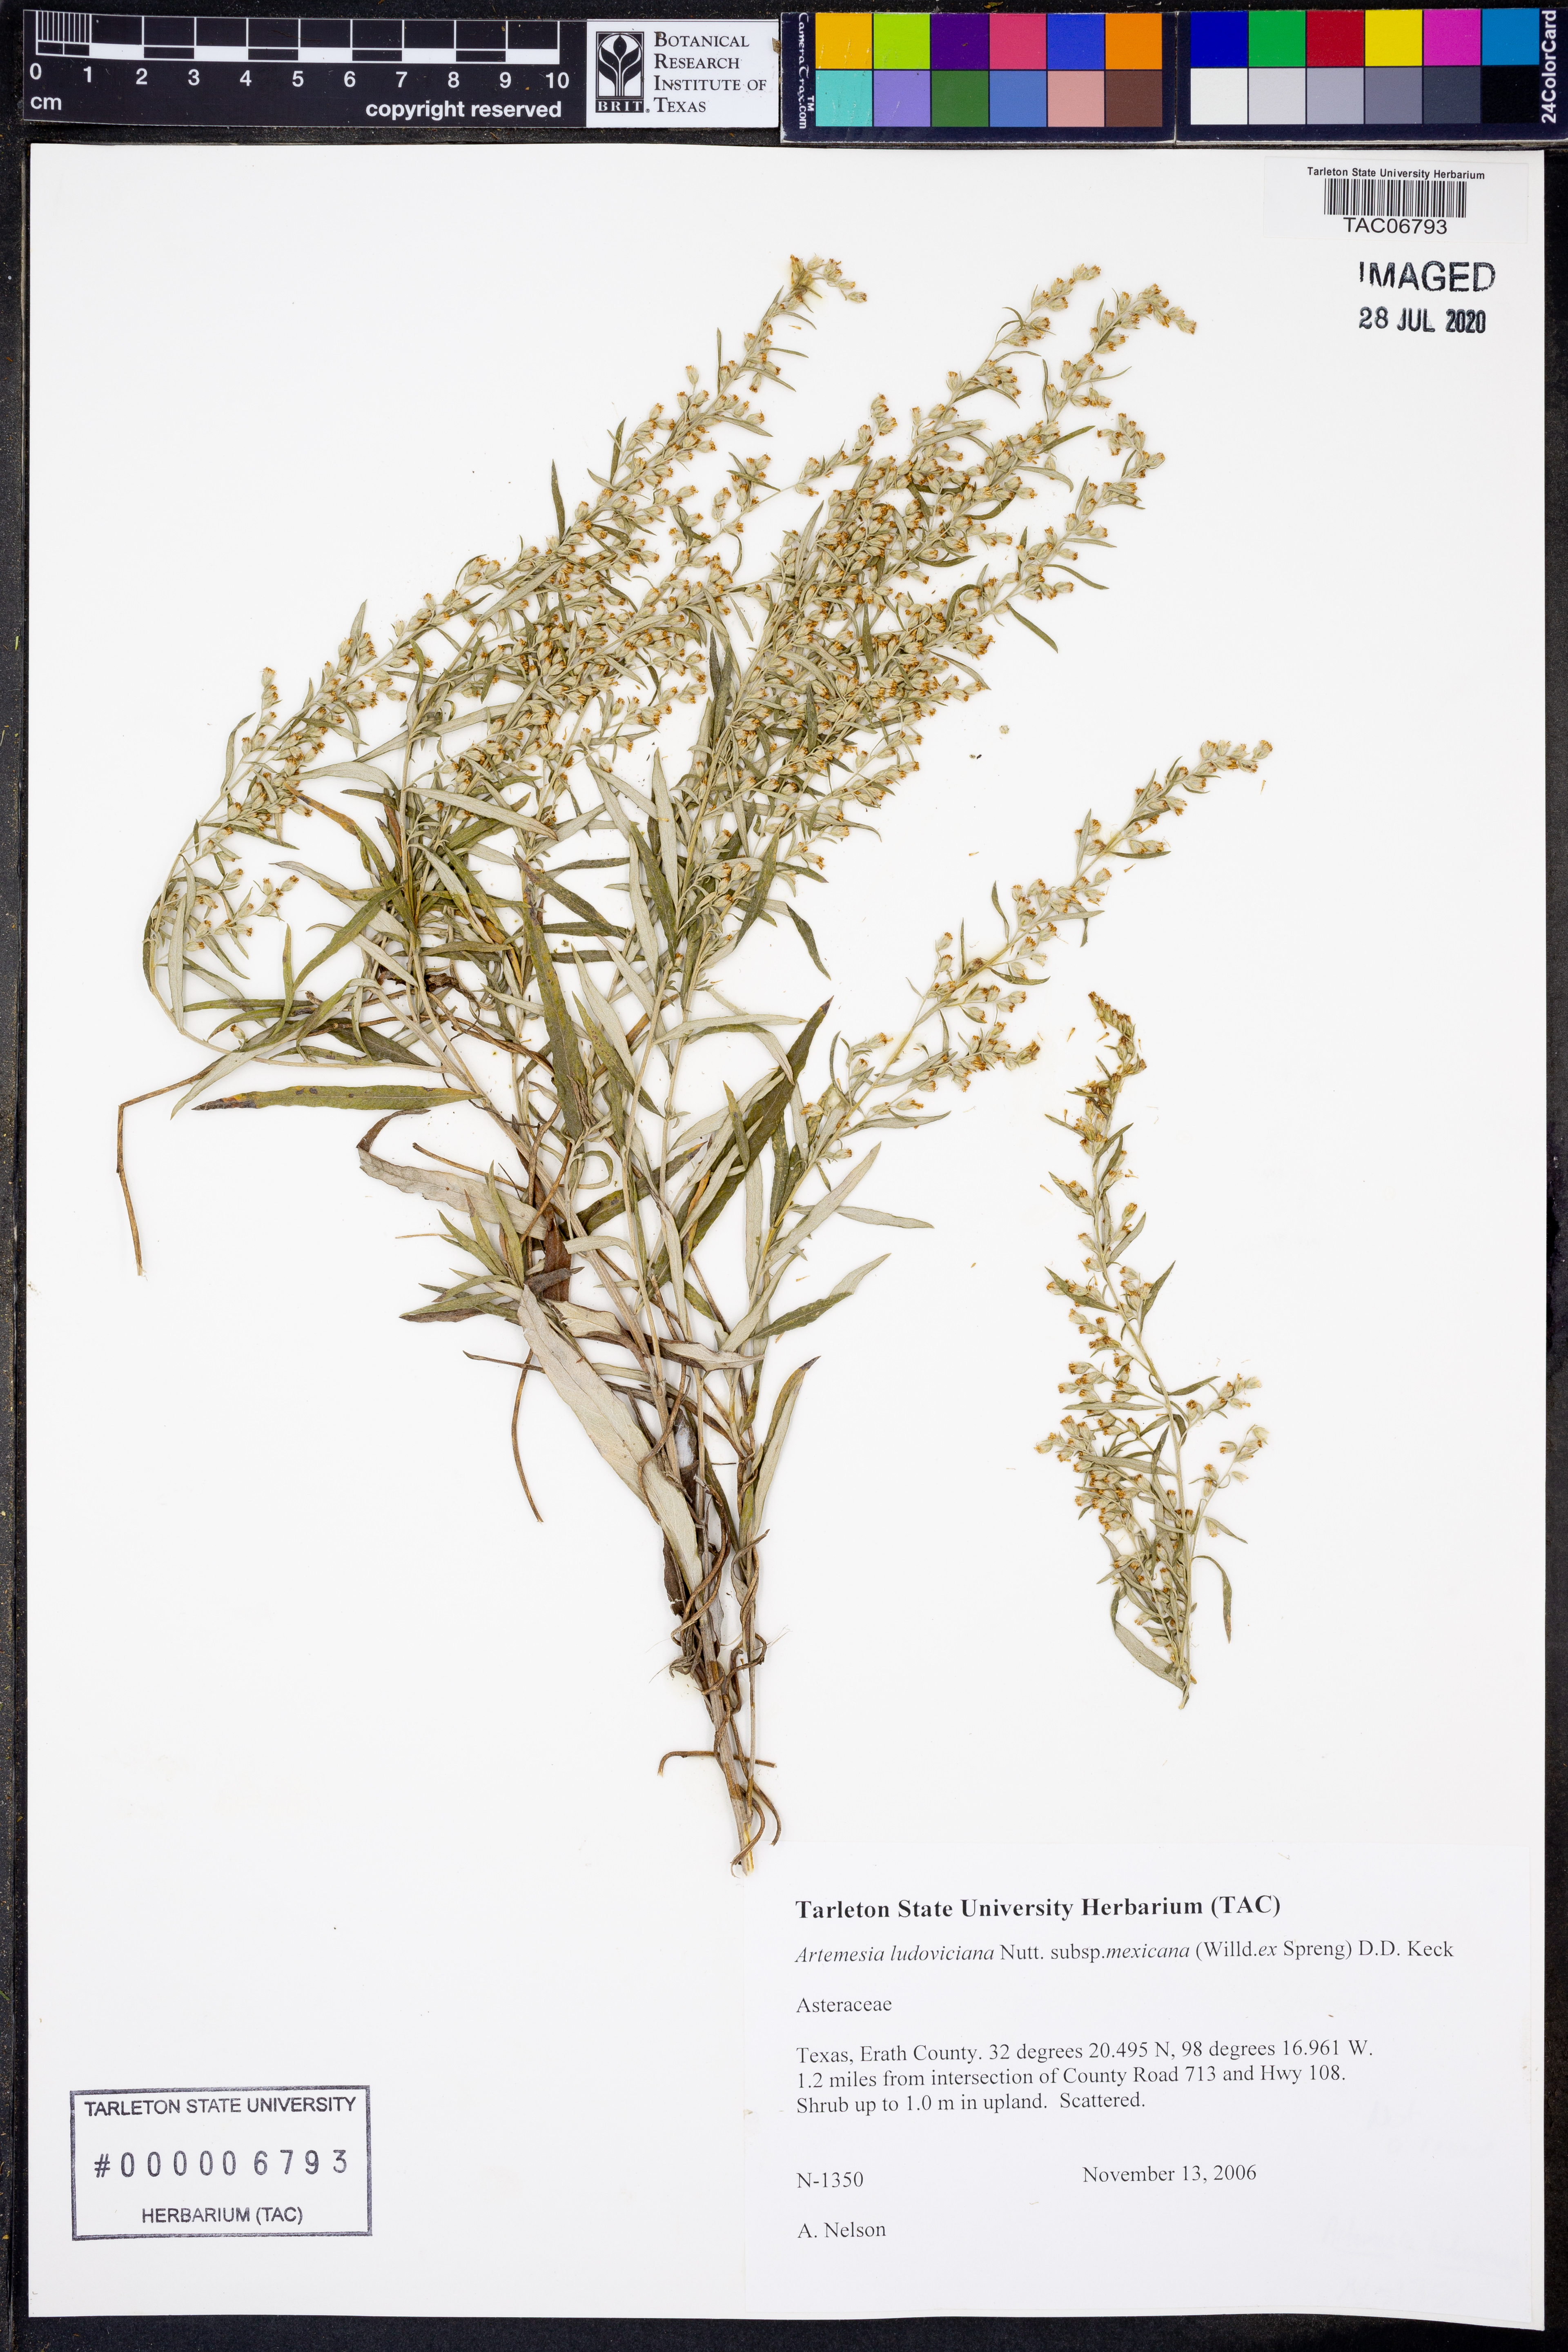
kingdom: Plantae
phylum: Tracheophyta
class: Magnoliopsida
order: Asterales
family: Asteraceae
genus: Artemisia
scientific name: Artemisia ludoviciana
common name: Western mugwort
